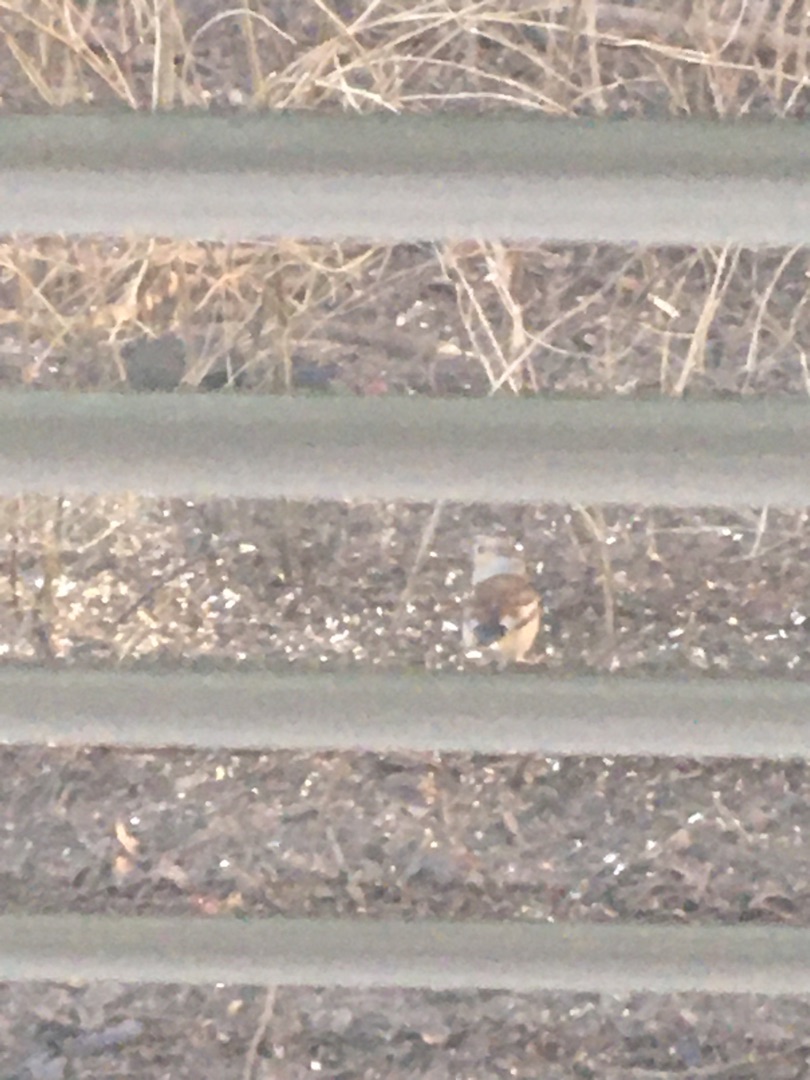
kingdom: Animalia
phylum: Chordata
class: Aves
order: Passeriformes
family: Fringillidae
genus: Coccothraustes
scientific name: Coccothraustes coccothraustes
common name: Kernebider
